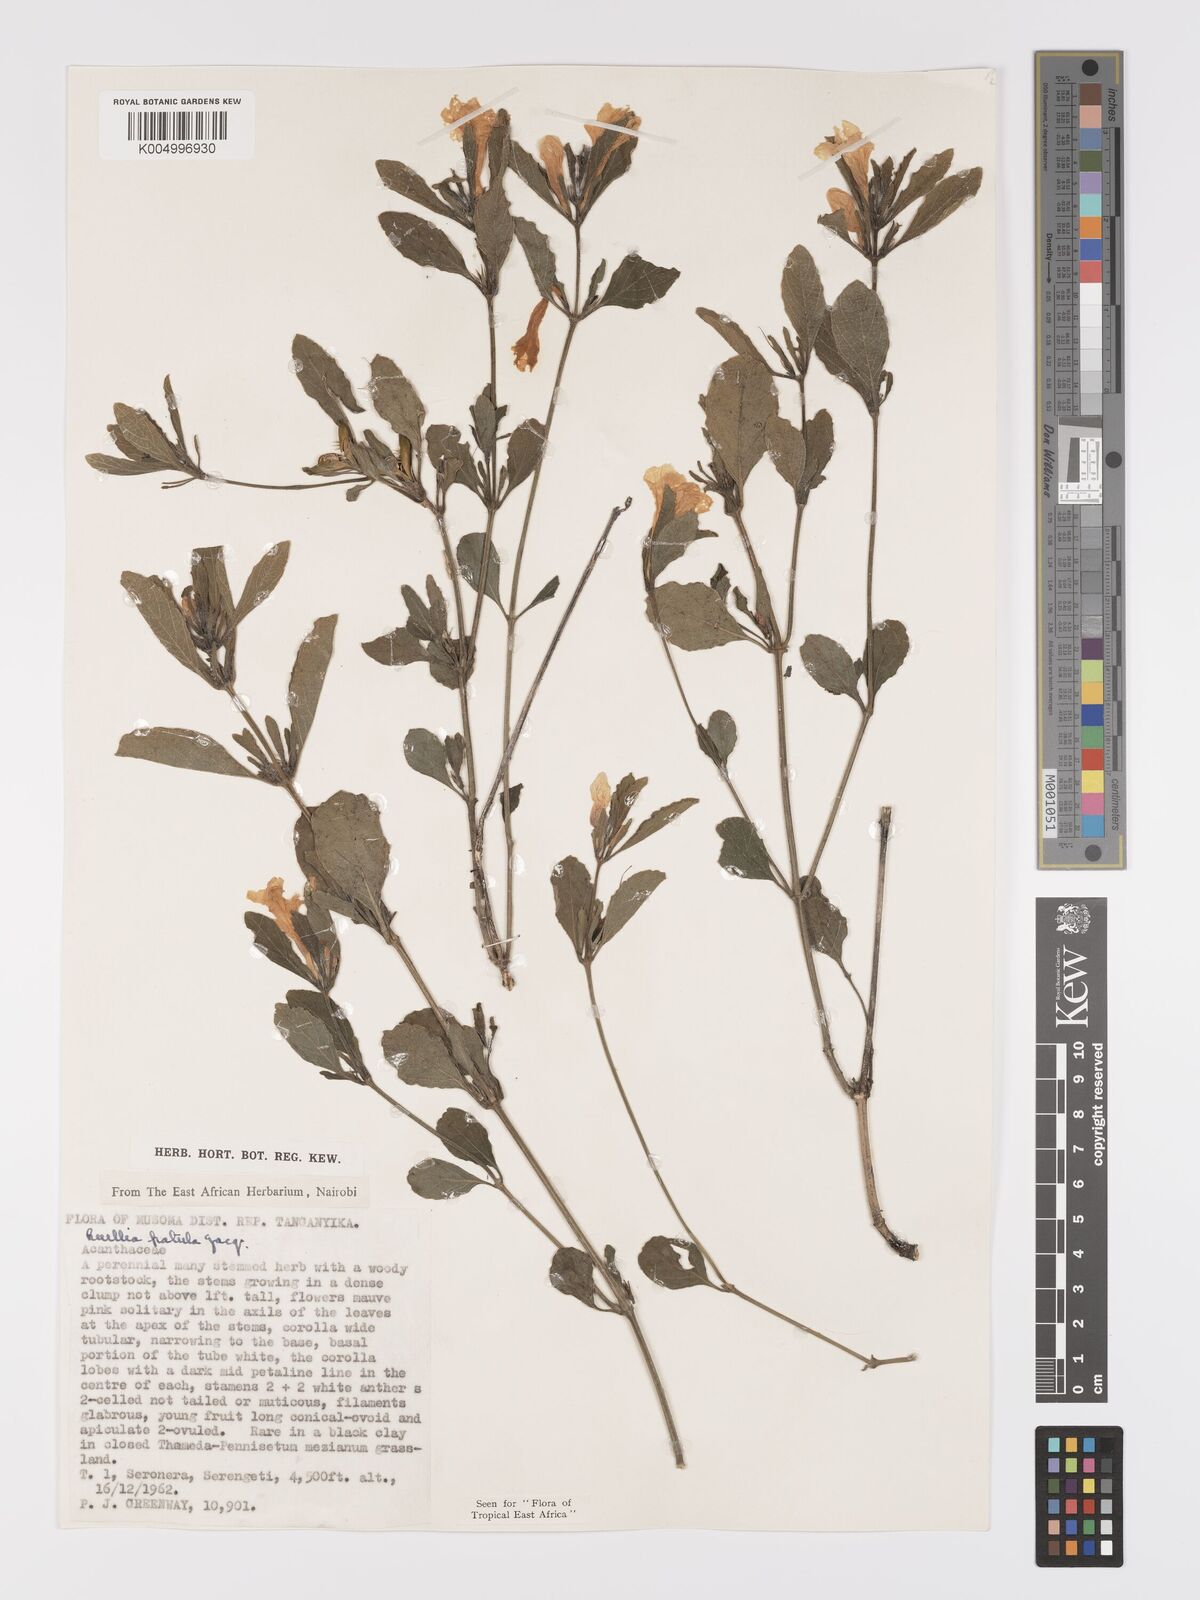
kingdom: Plantae
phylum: Tracheophyta
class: Magnoliopsida
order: Lamiales
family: Acanthaceae
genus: Ruellia
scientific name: Ruellia patula
